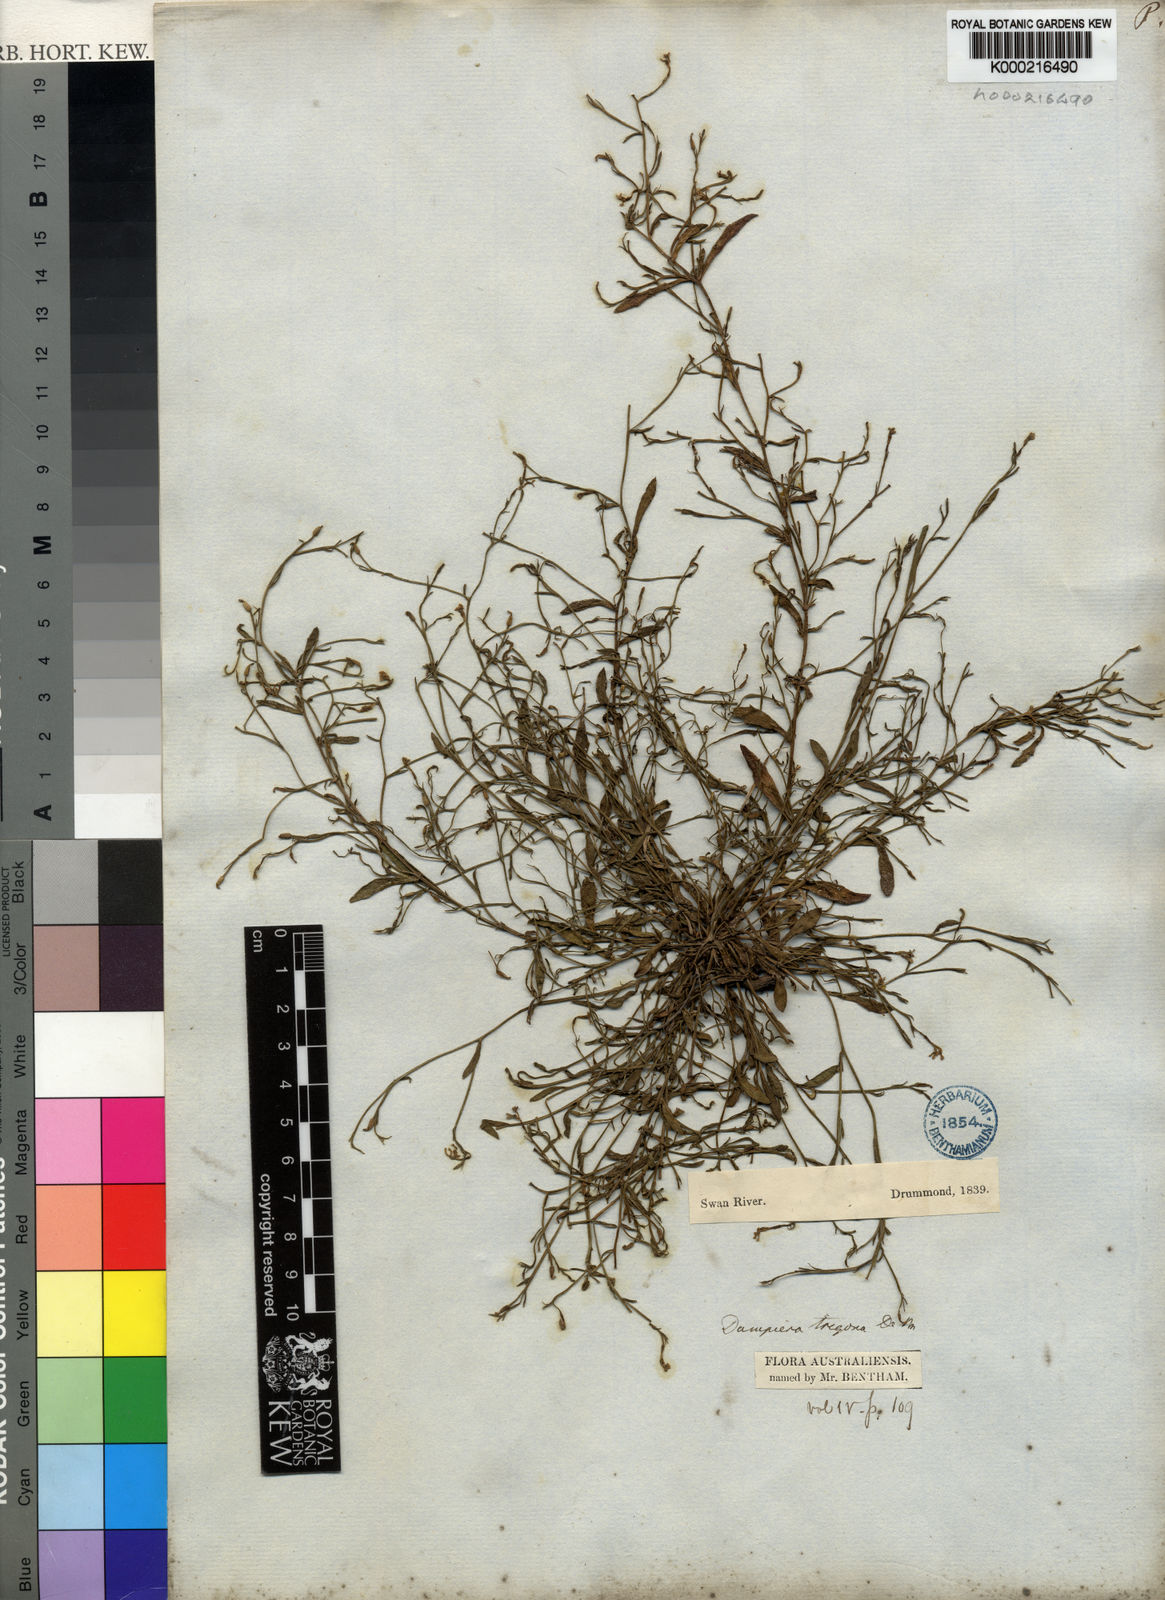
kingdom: Plantae
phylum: Tracheophyta
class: Magnoliopsida
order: Asterales
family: Goodeniaceae
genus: Dampiera
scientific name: Dampiera trigona
